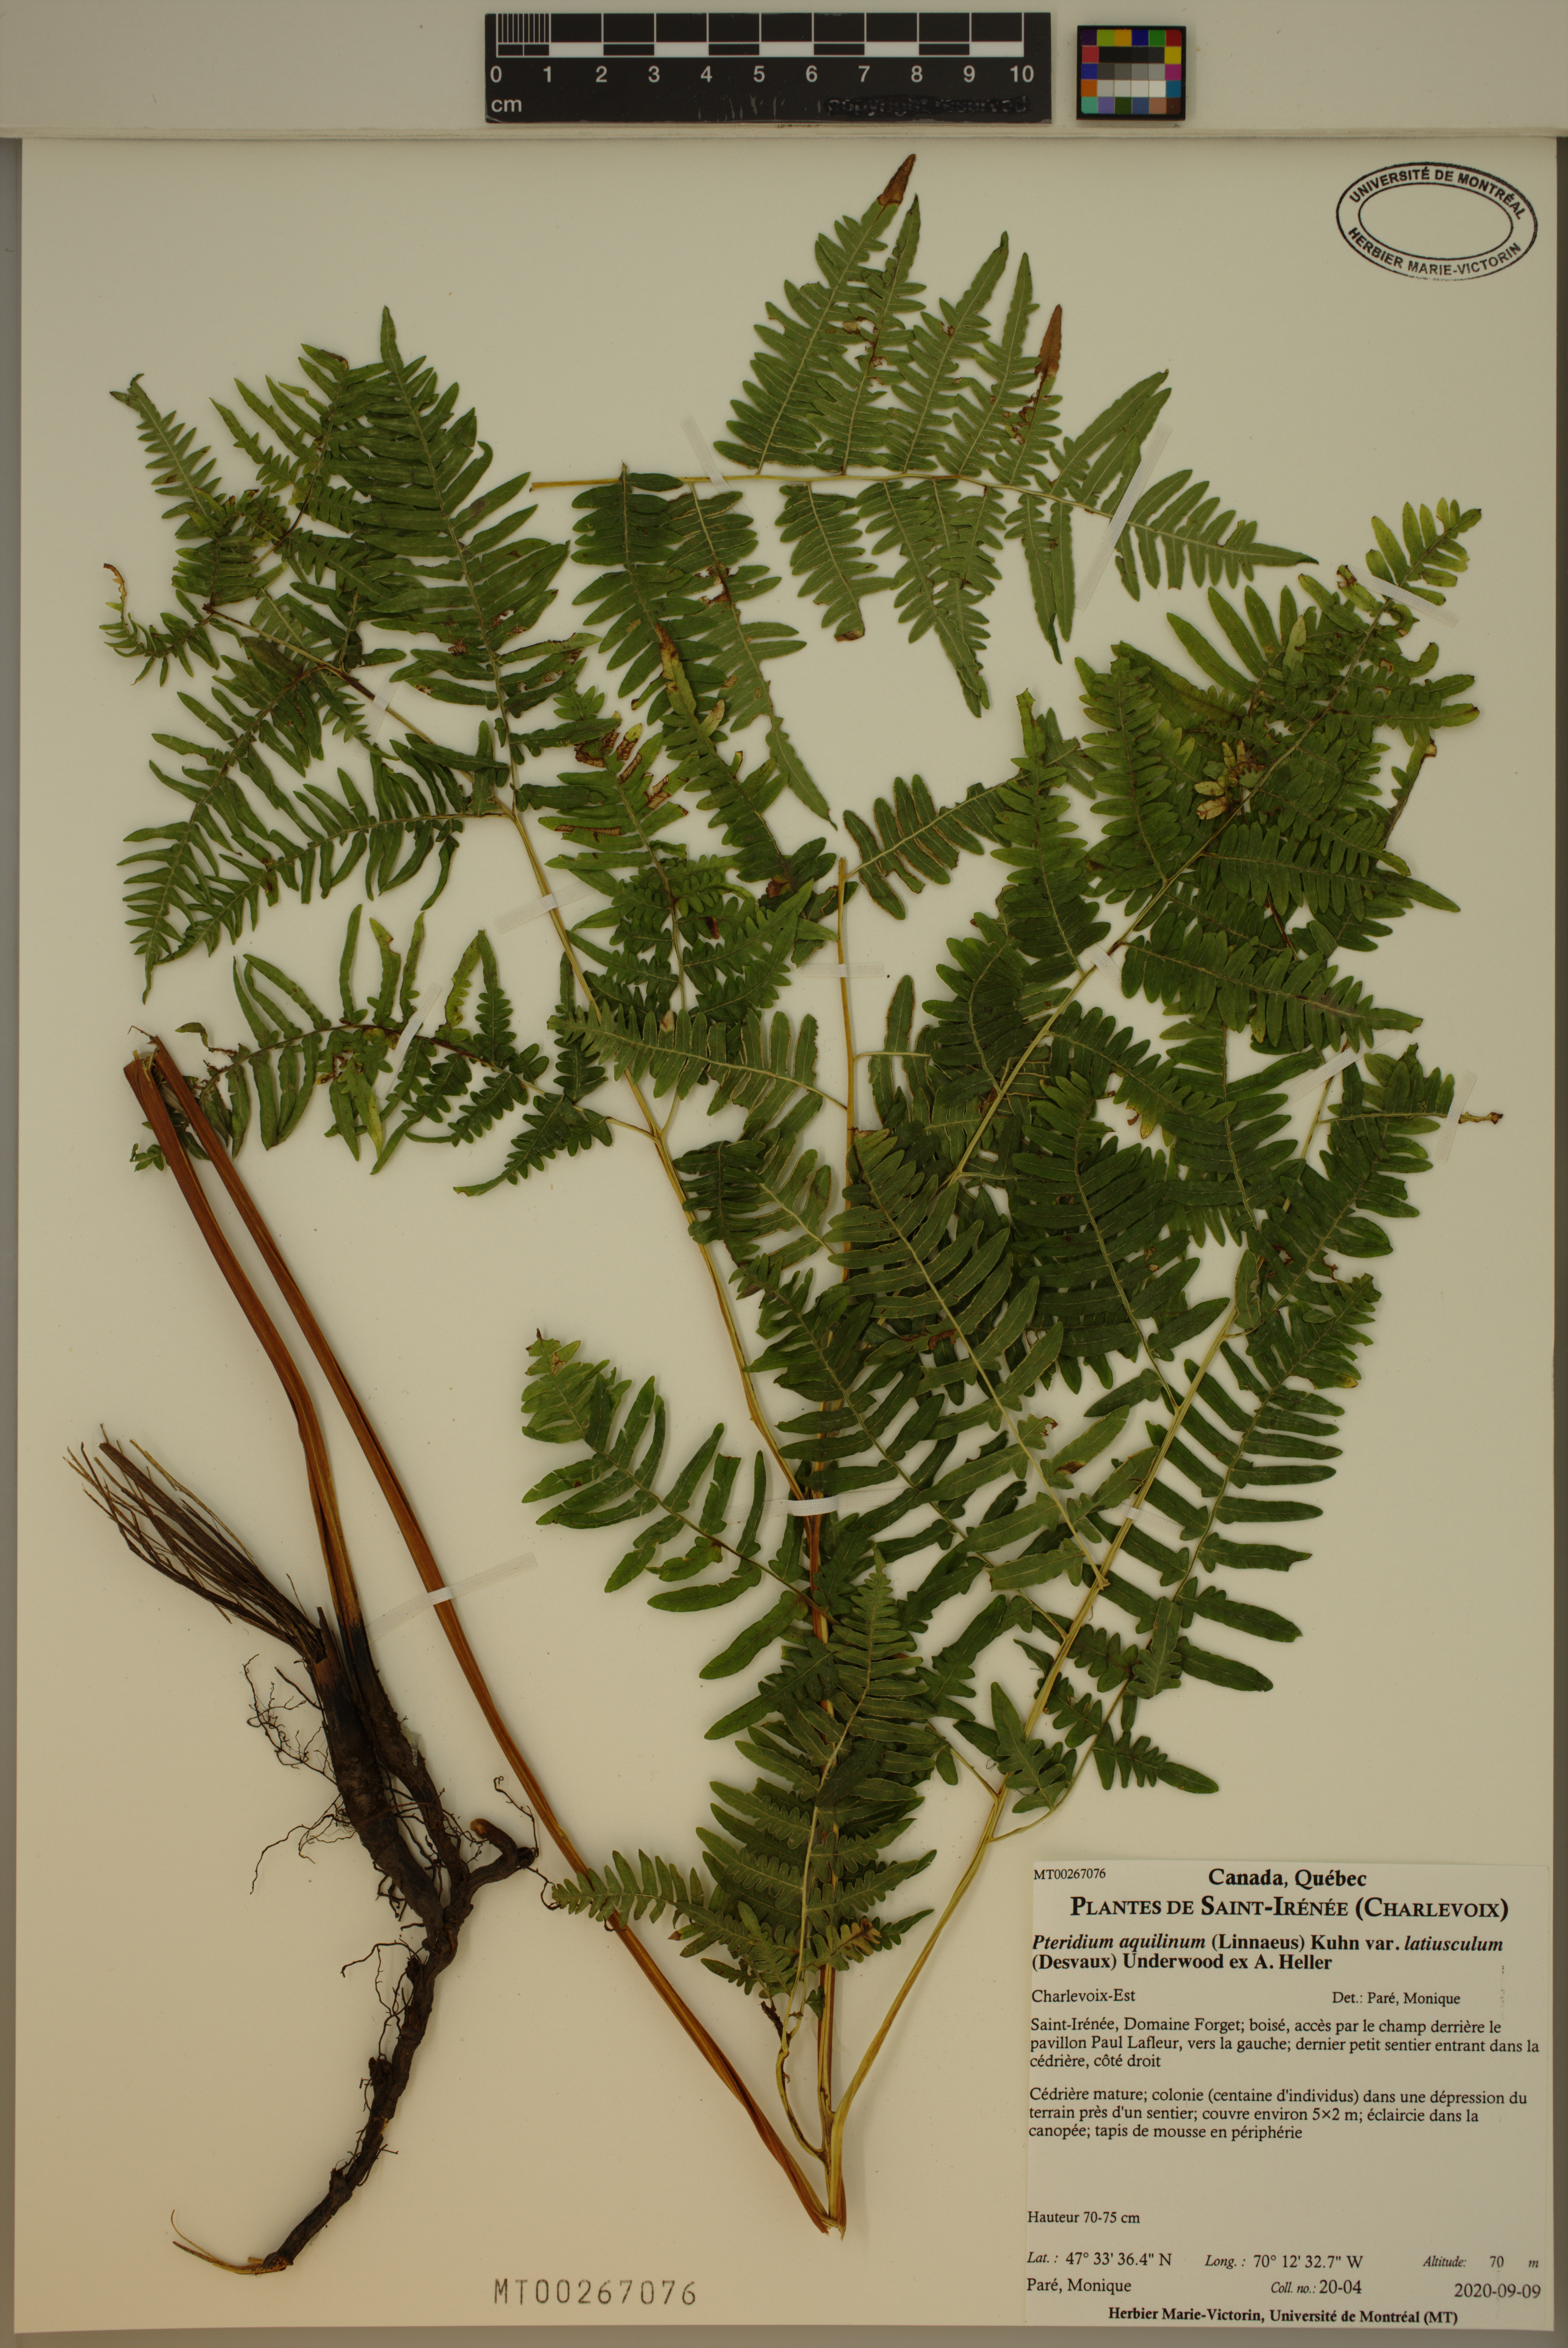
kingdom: Plantae
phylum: Tracheophyta
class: Polypodiopsida
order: Polypodiales
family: Dennstaedtiaceae
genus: Pteridium
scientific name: Pteridium aquilinum
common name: Bracken
